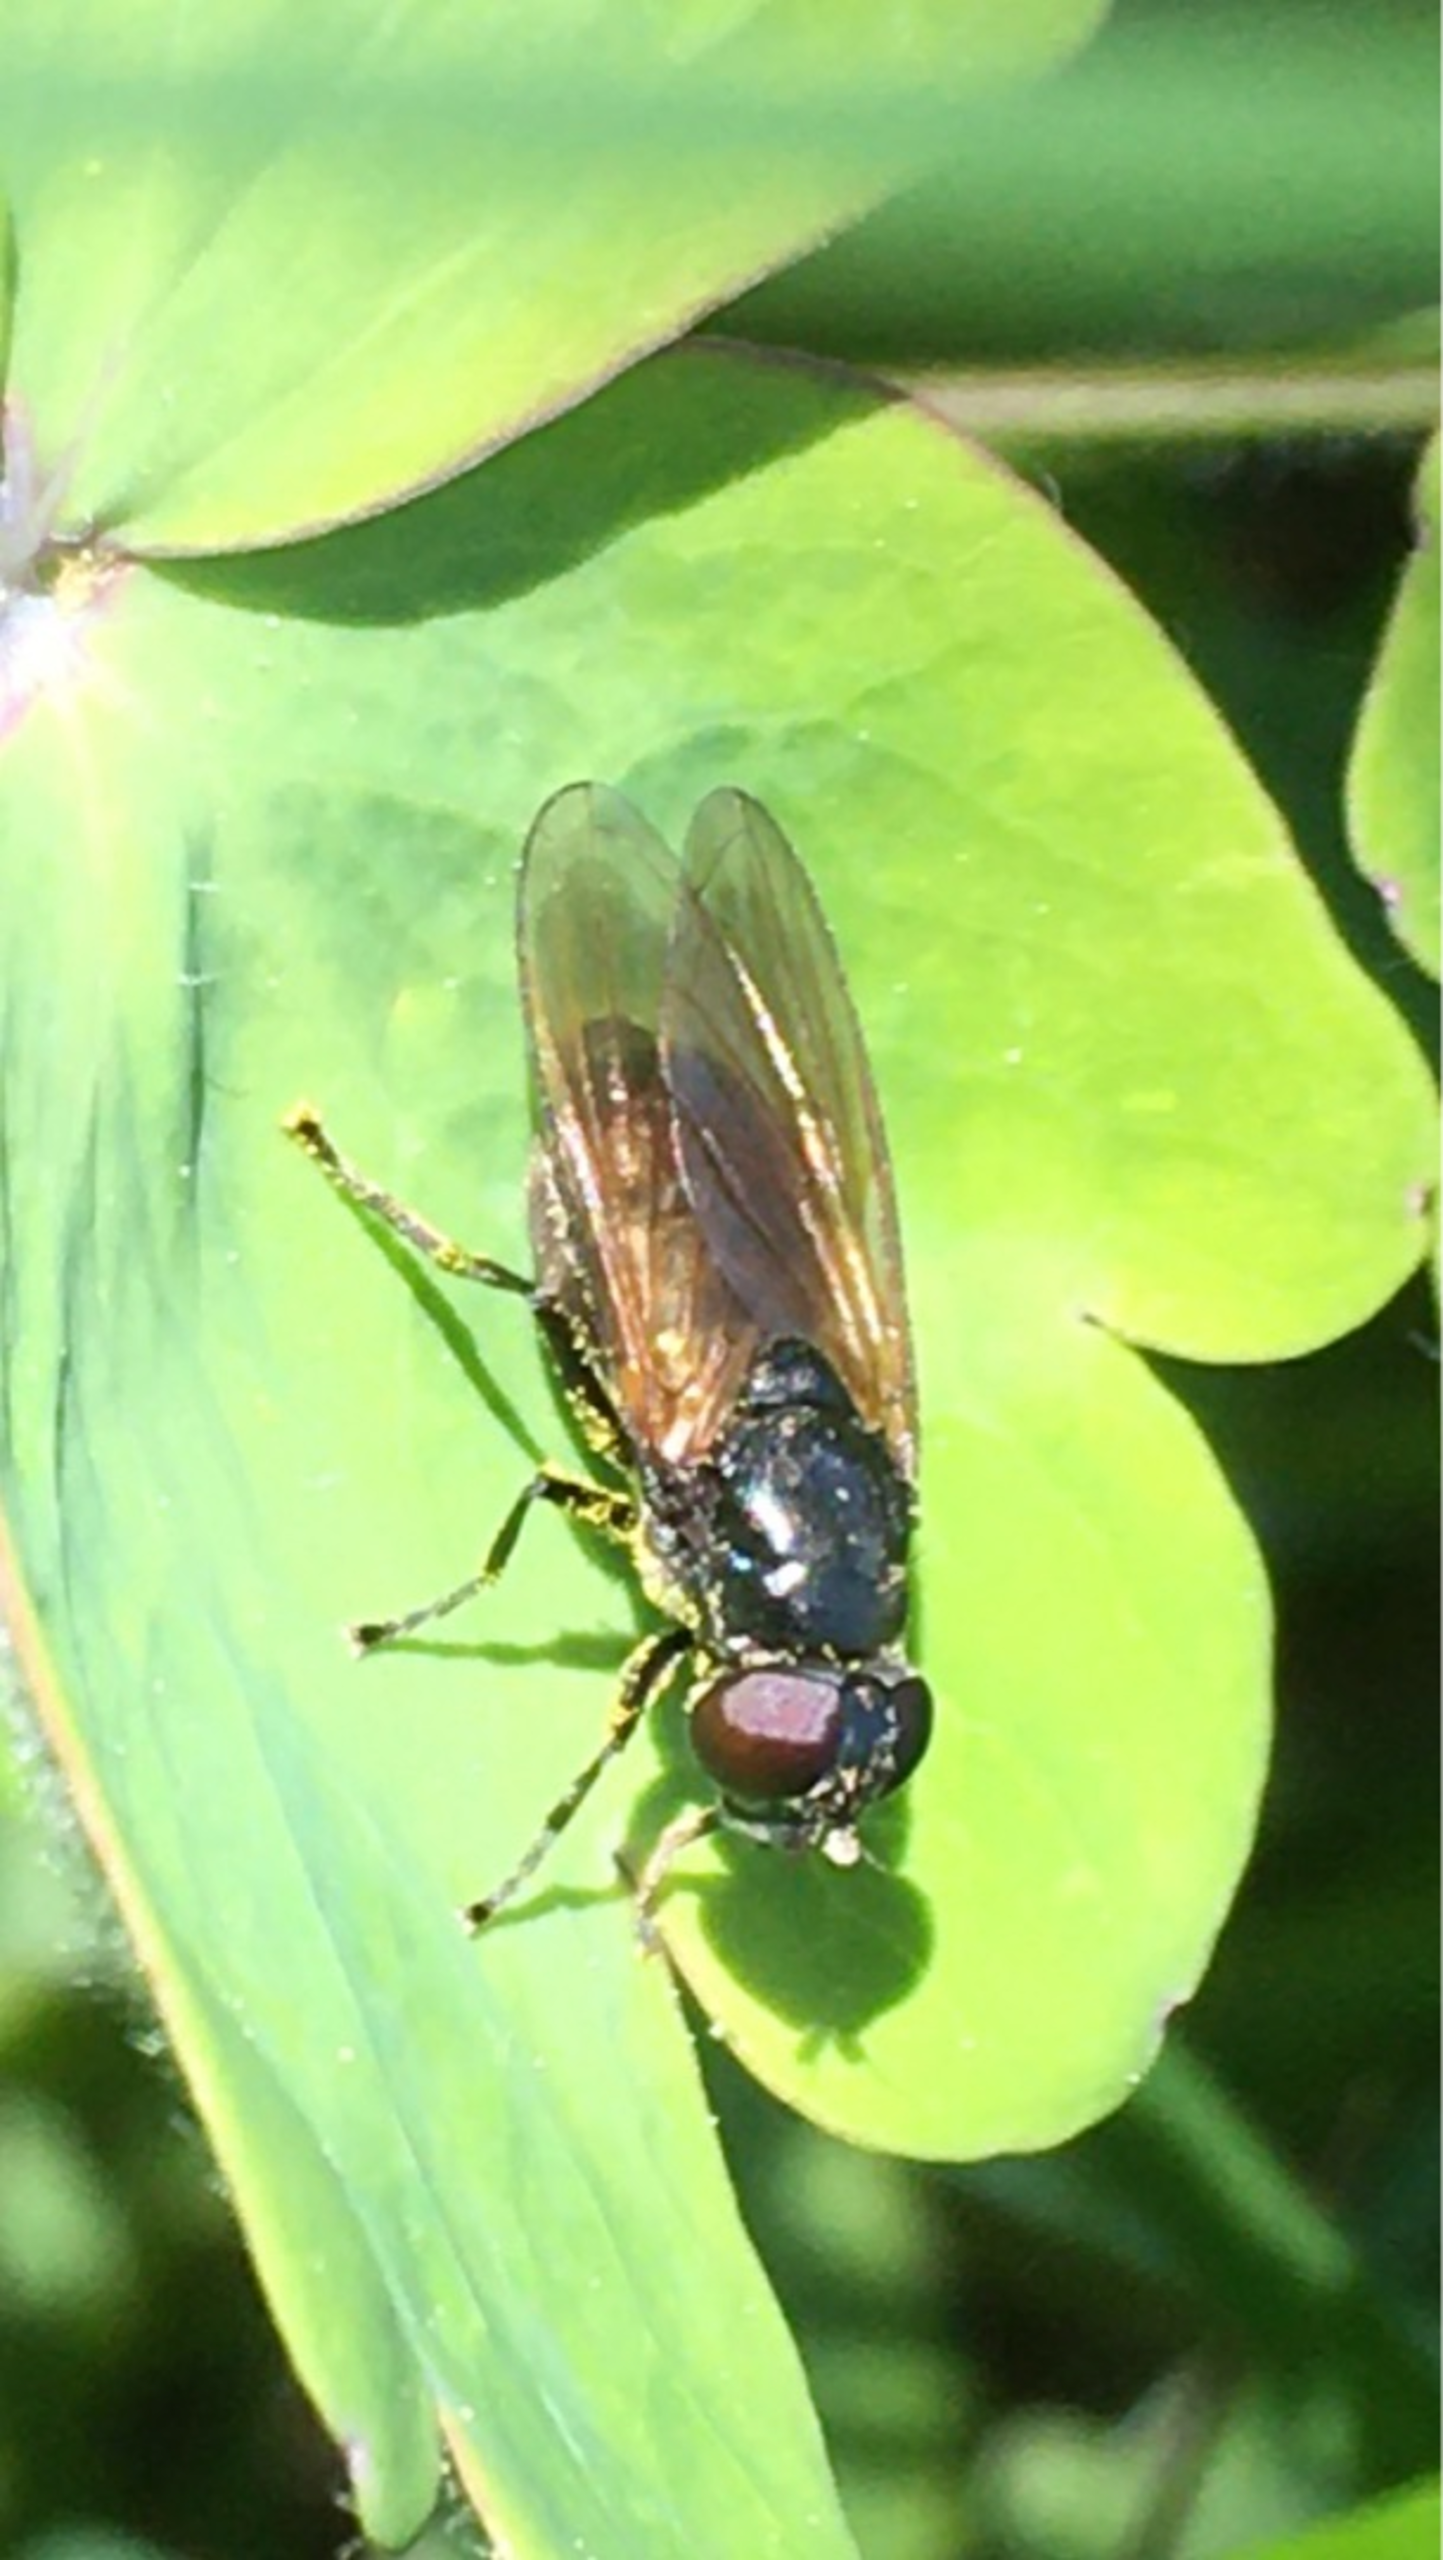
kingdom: Animalia
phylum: Arthropoda
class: Insecta
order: Diptera
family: Syrphidae
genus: Cheilosia
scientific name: Cheilosia vernalis
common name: Asters-urtesvirreflue
